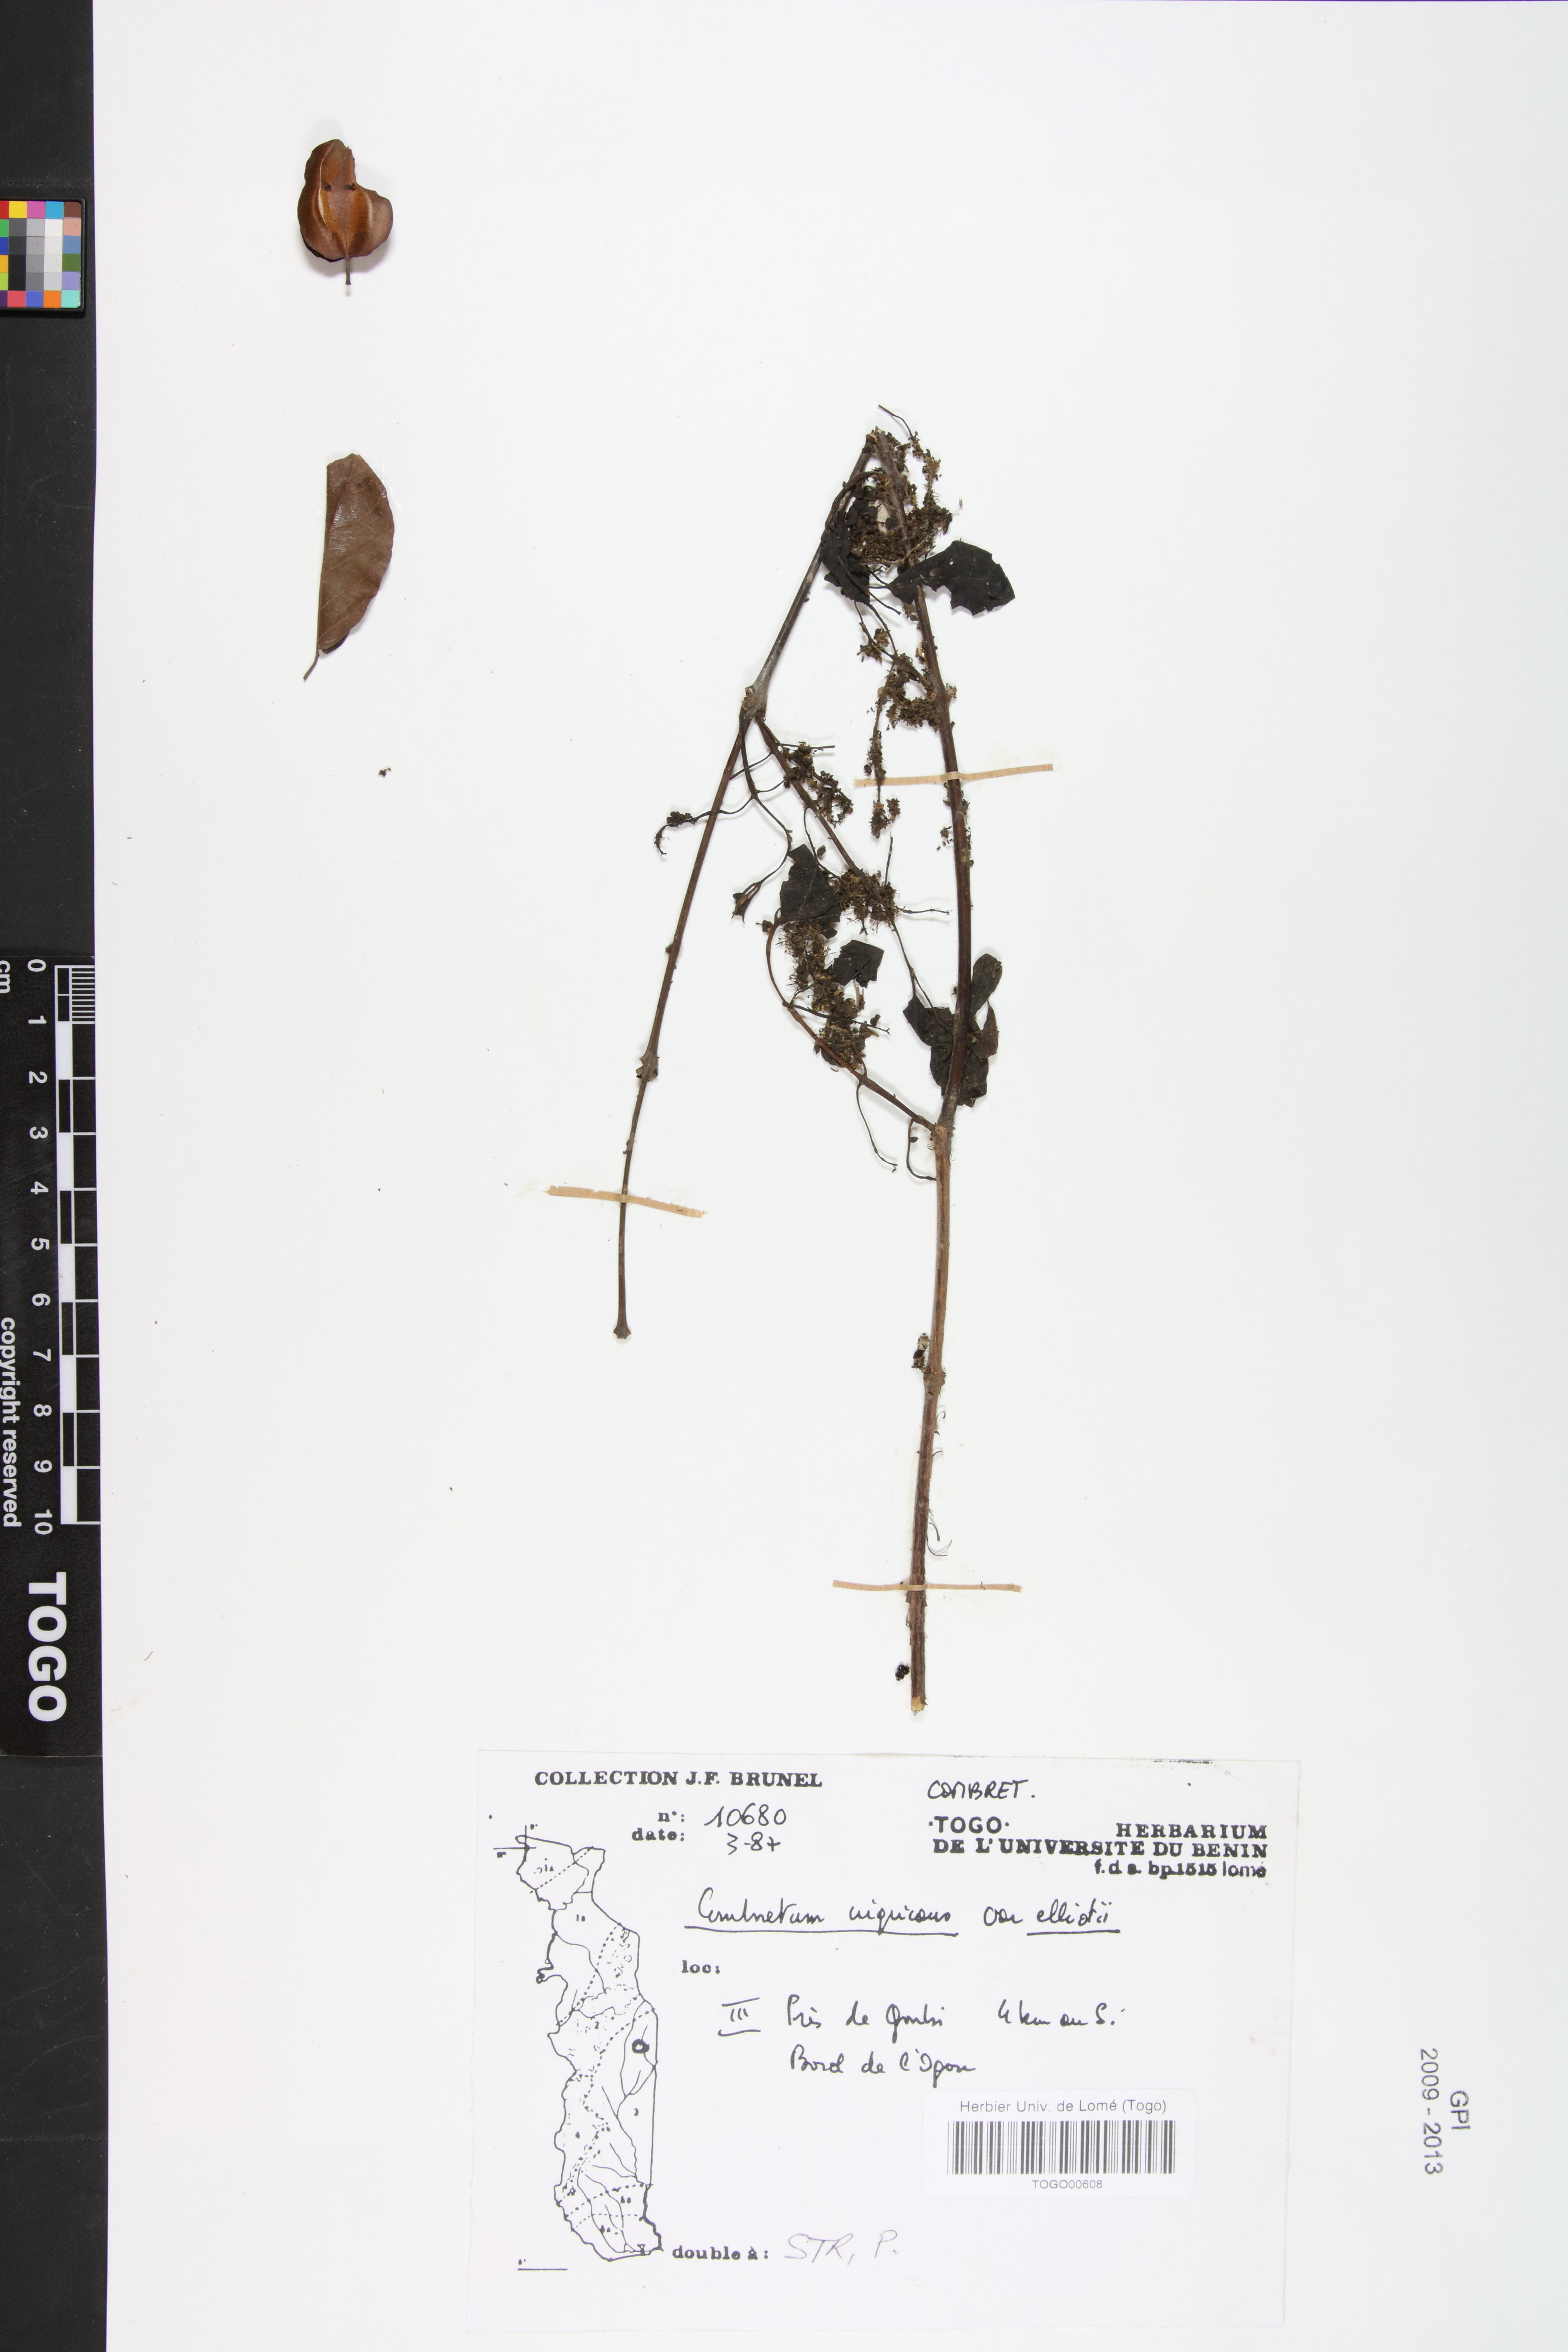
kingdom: Plantae
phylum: Tracheophyta
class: Magnoliopsida
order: Myrtales
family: Combretaceae
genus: Combretum
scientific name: Combretum nigricans
